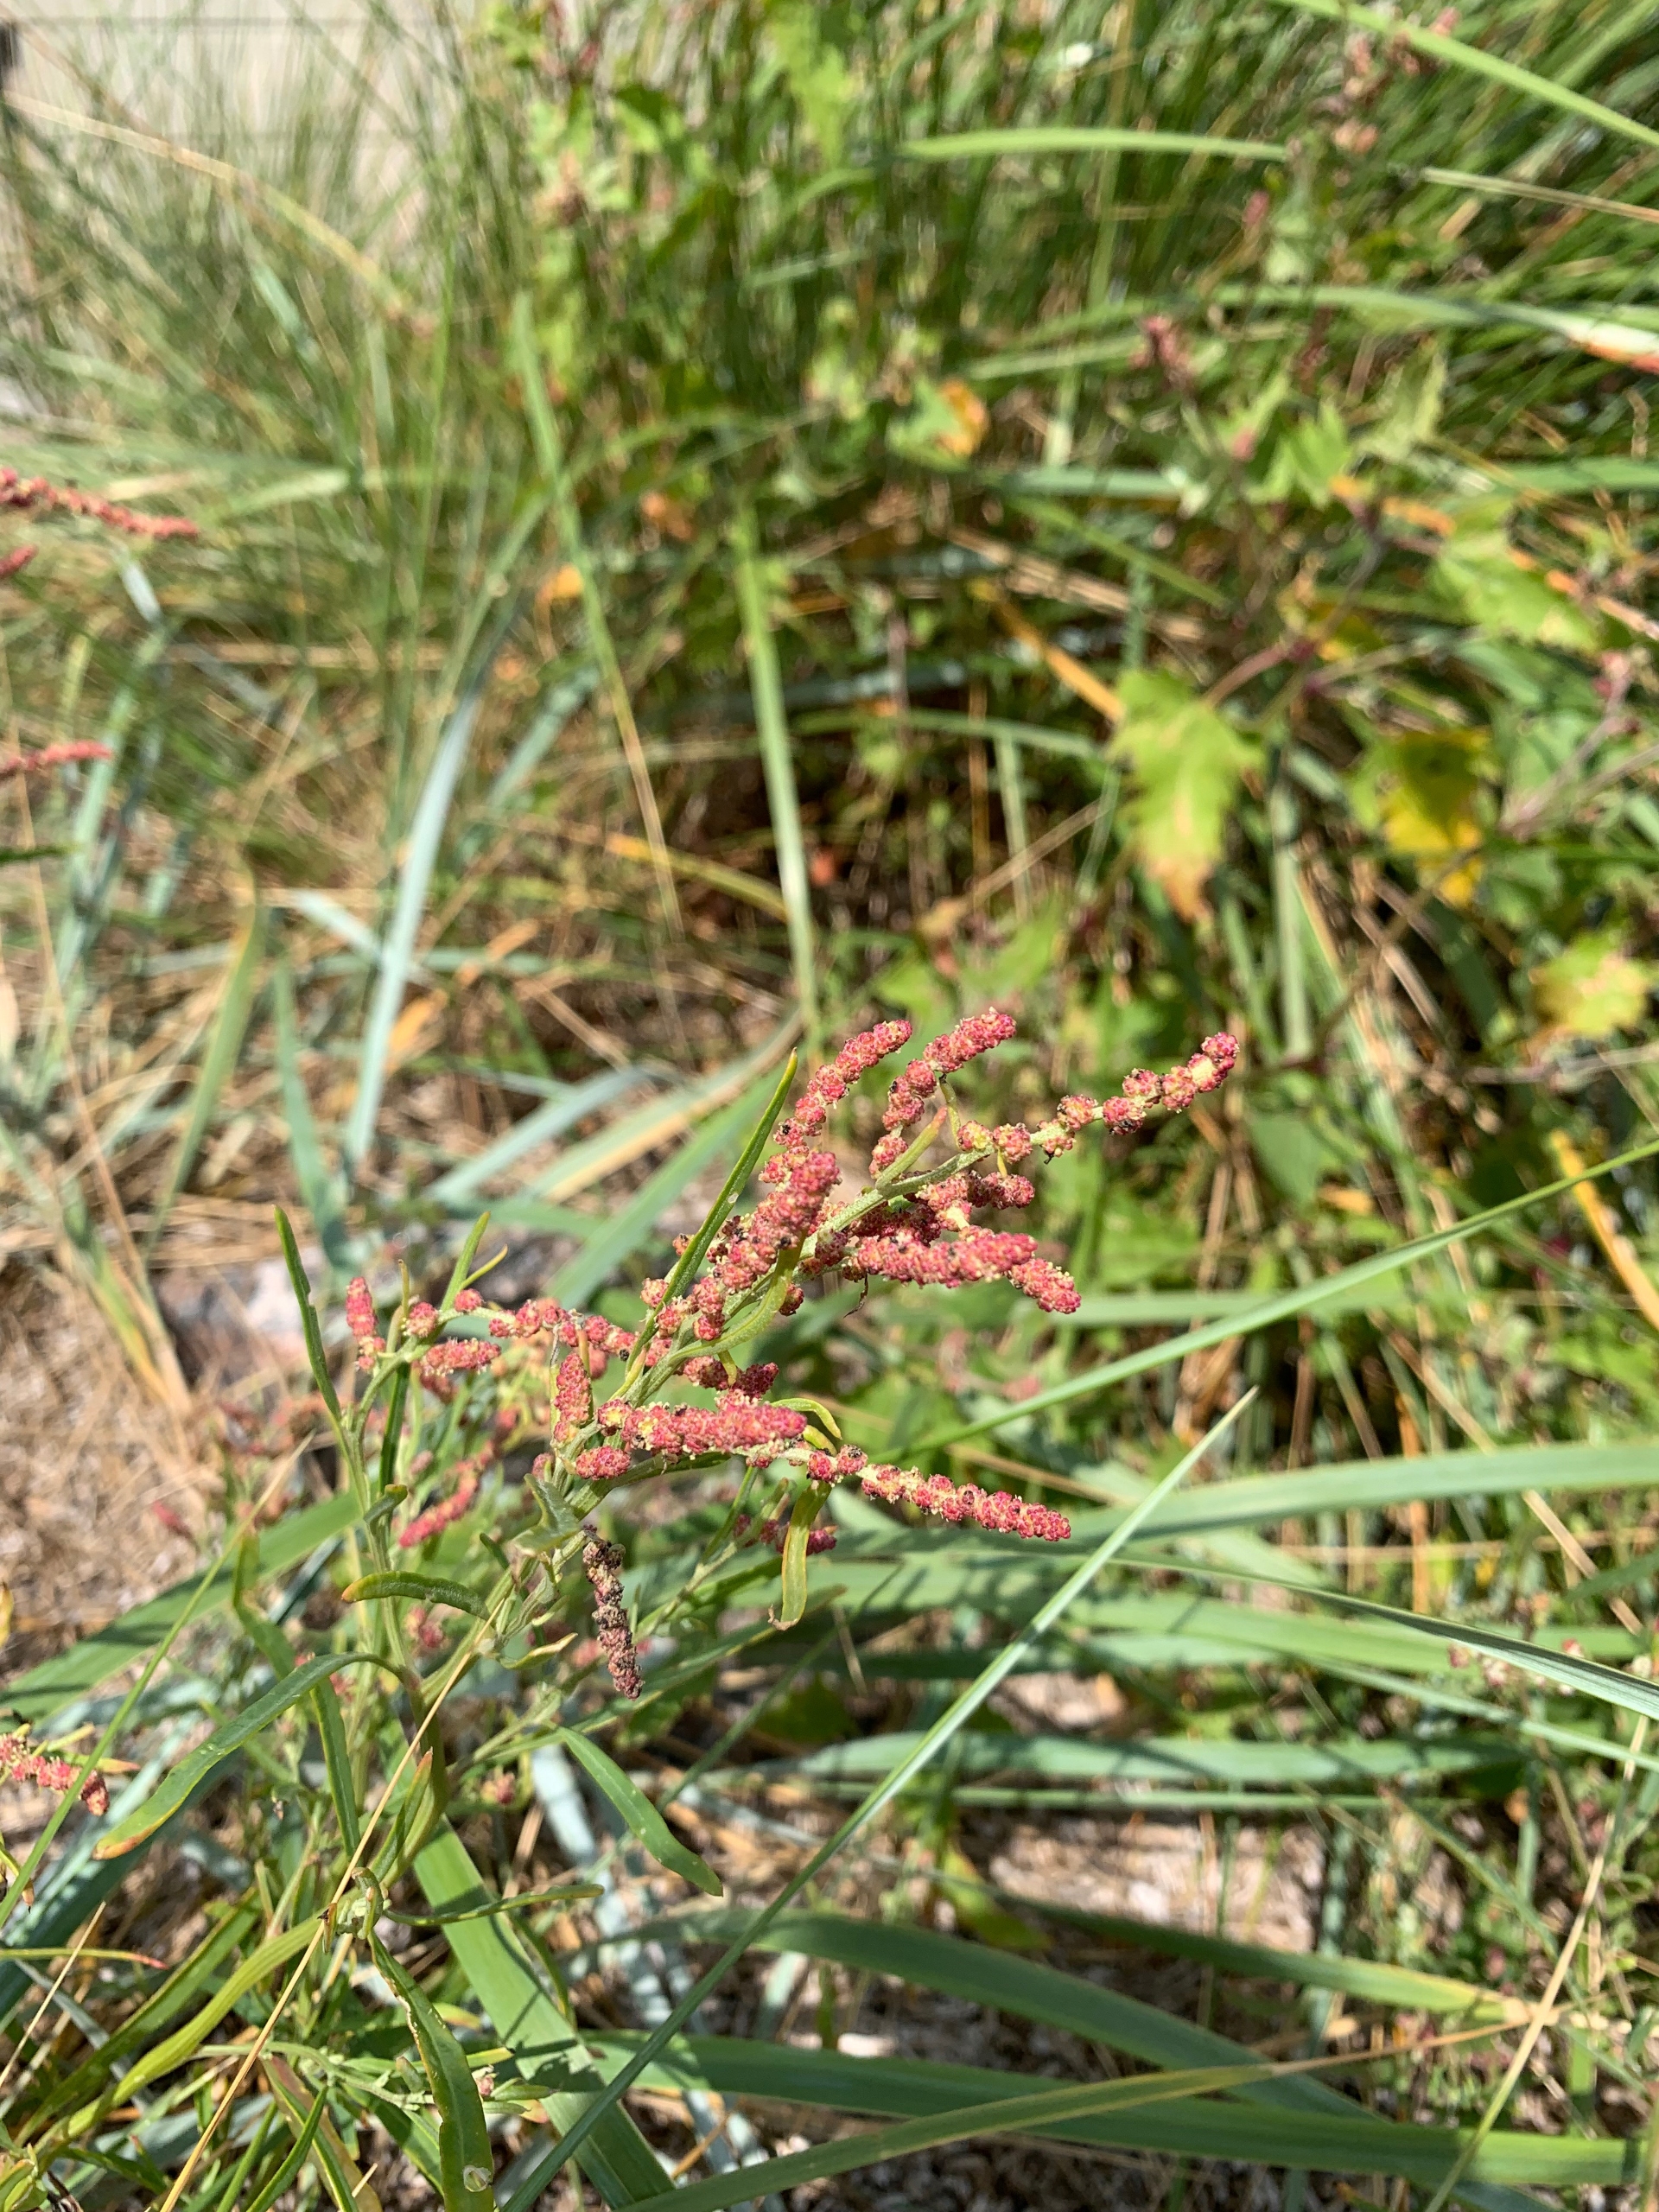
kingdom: Plantae
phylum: Tracheophyta
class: Magnoliopsida
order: Caryophyllales
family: Amaranthaceae
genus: Atriplex
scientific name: Atriplex littoralis
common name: Strand-mælde
